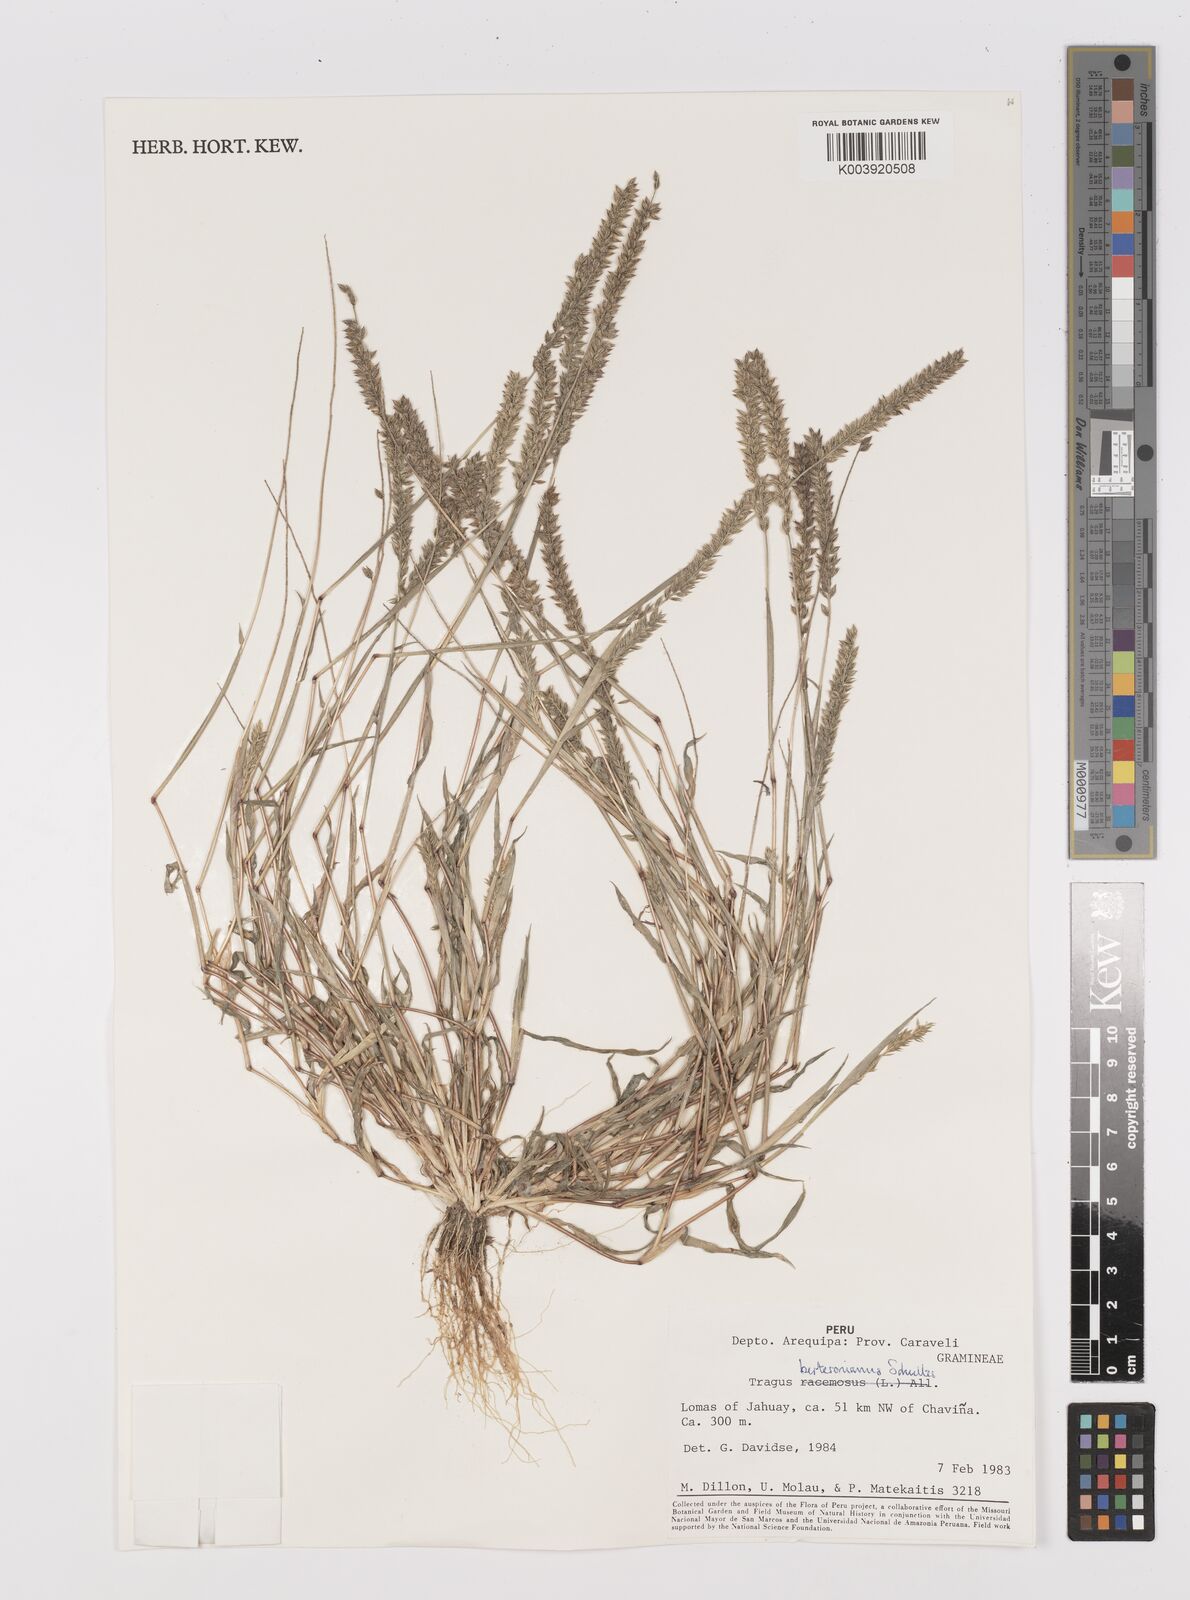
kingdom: Plantae
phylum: Tracheophyta
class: Liliopsida
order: Poales
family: Poaceae
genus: Tragus
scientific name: Tragus berteronianus
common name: African bur-grass
